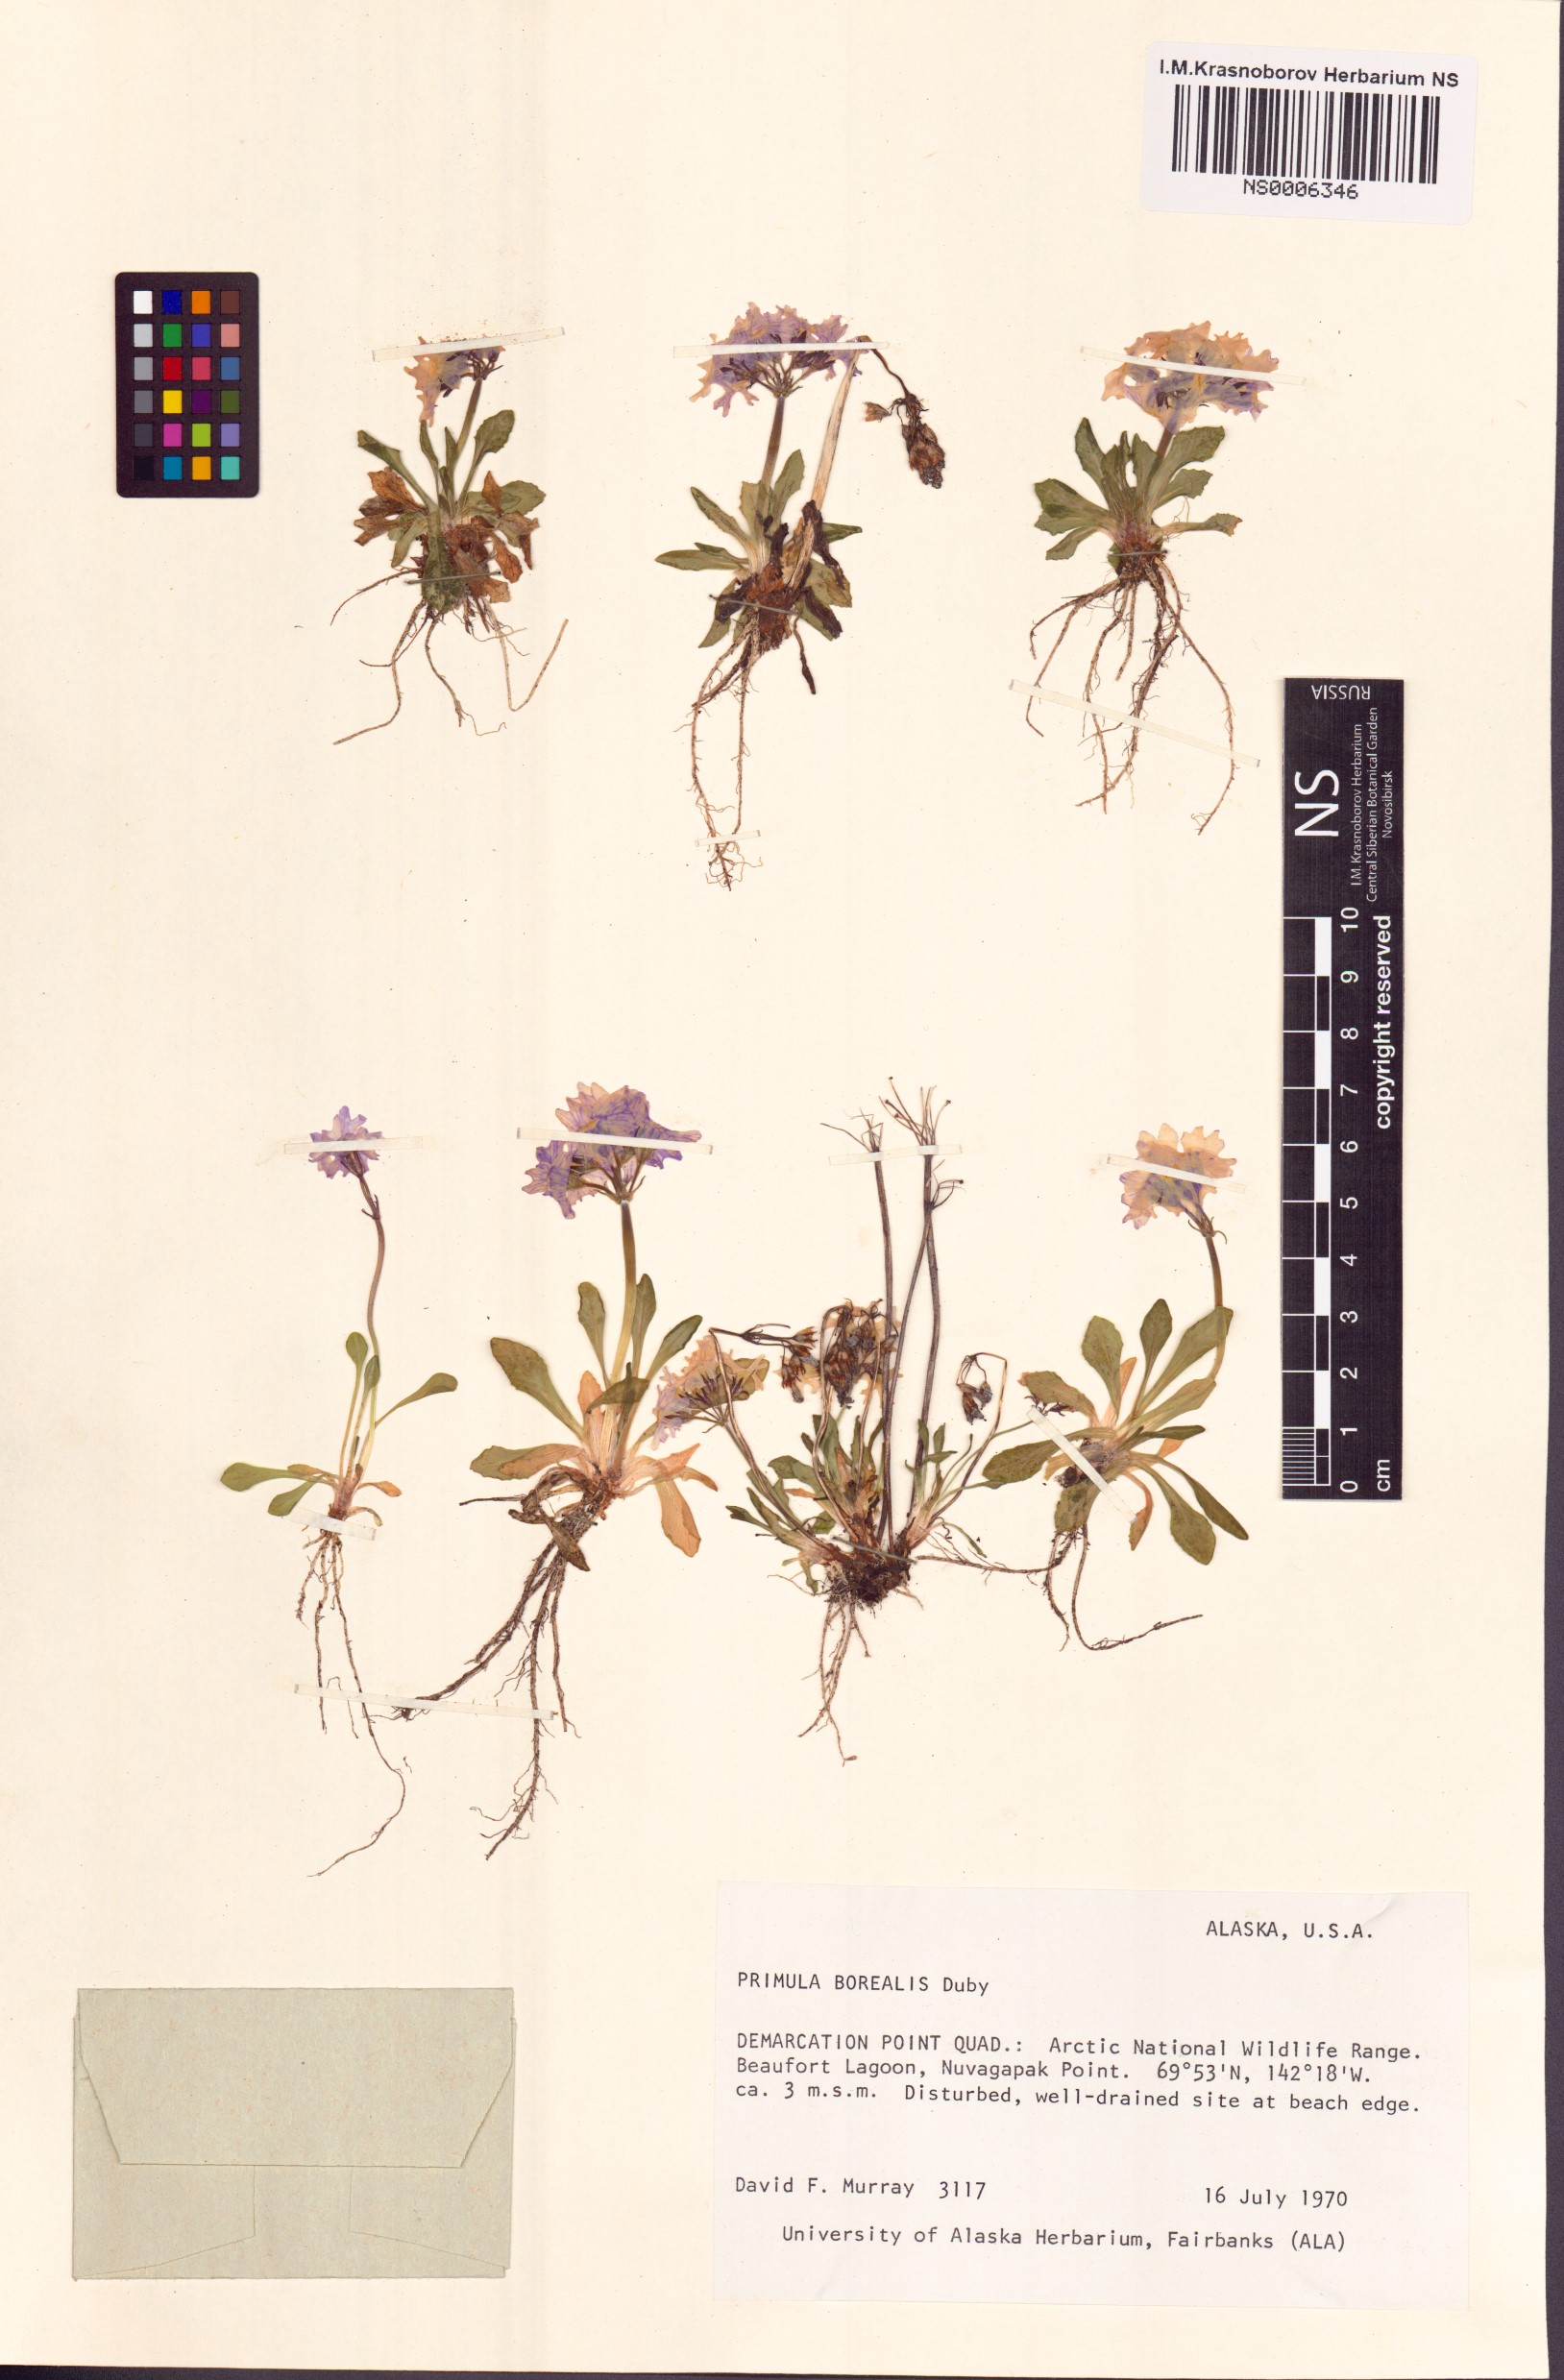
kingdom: Plantae
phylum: Tracheophyta
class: Magnoliopsida
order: Ericales
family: Primulaceae
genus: Primula
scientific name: Primula borealis
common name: Northern primrose
